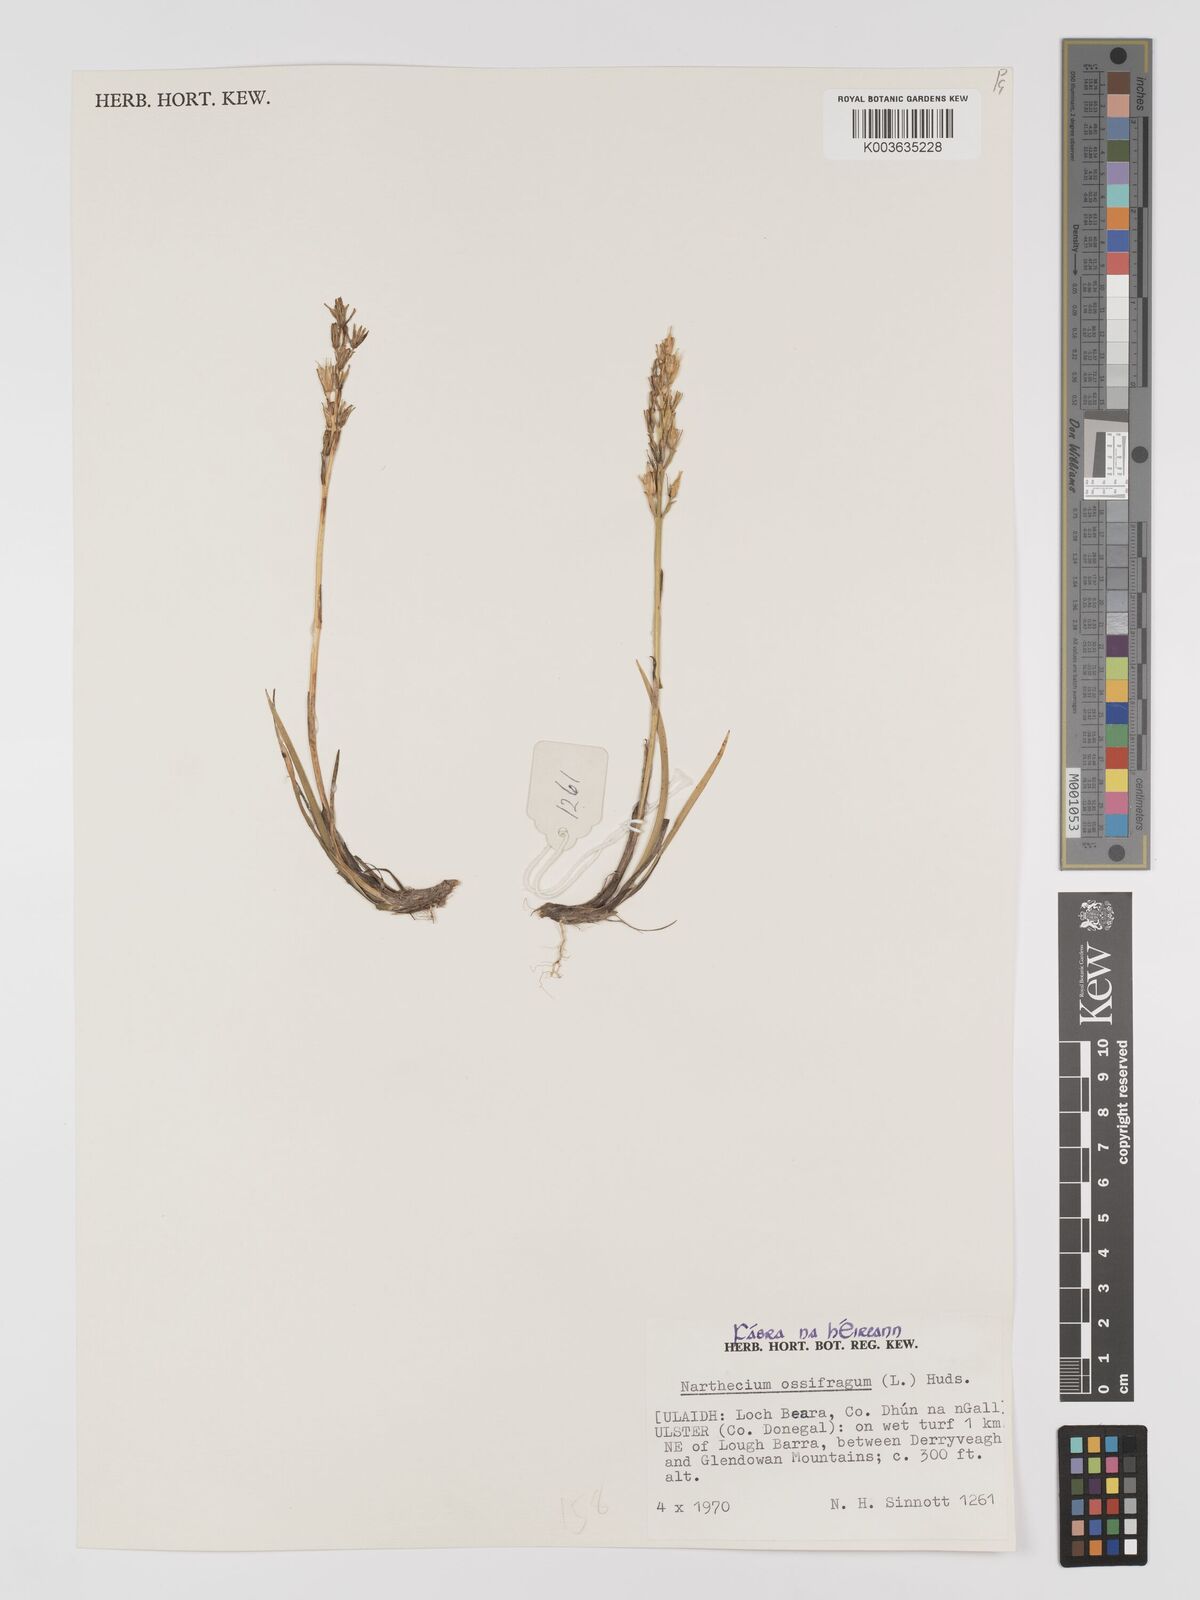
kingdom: Plantae
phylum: Tracheophyta
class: Liliopsida
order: Dioscoreales
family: Nartheciaceae
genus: Narthecium
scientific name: Narthecium ossifragum
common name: Bog asphodel
